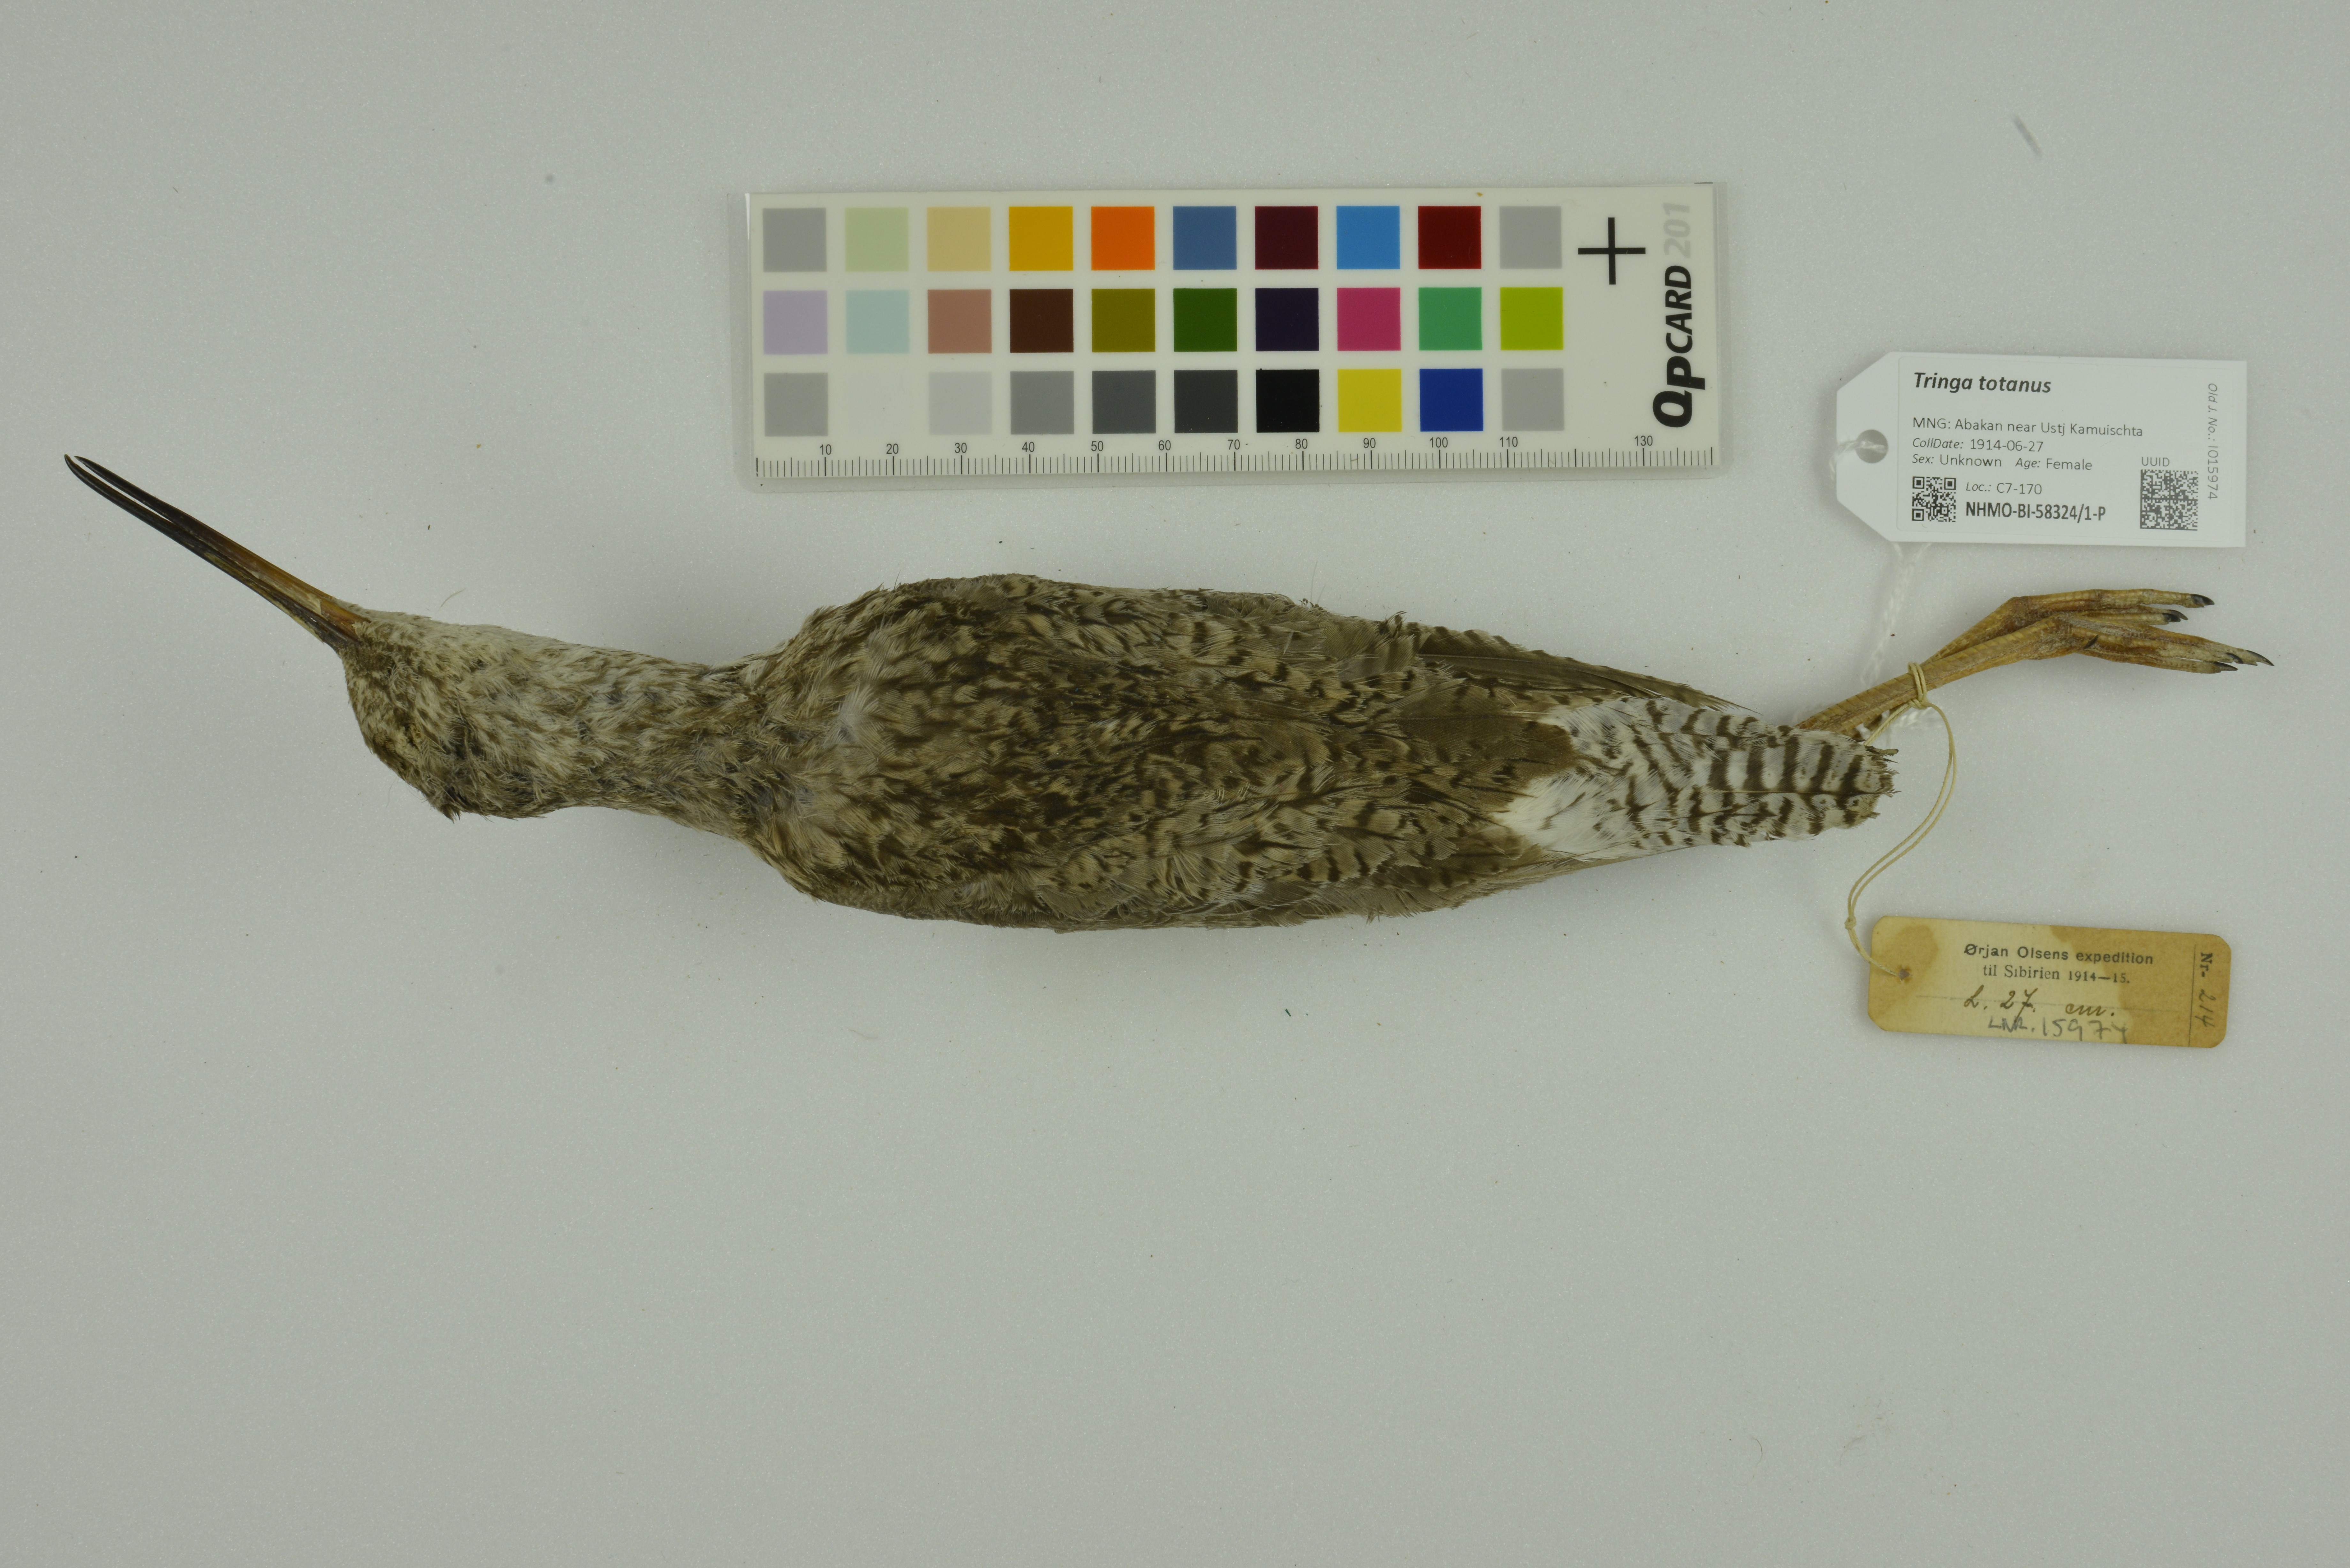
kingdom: Animalia
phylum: Chordata
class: Aves
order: Charadriiformes
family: Scolopacidae
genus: Tringa
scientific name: Tringa totanus
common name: Common redshank
